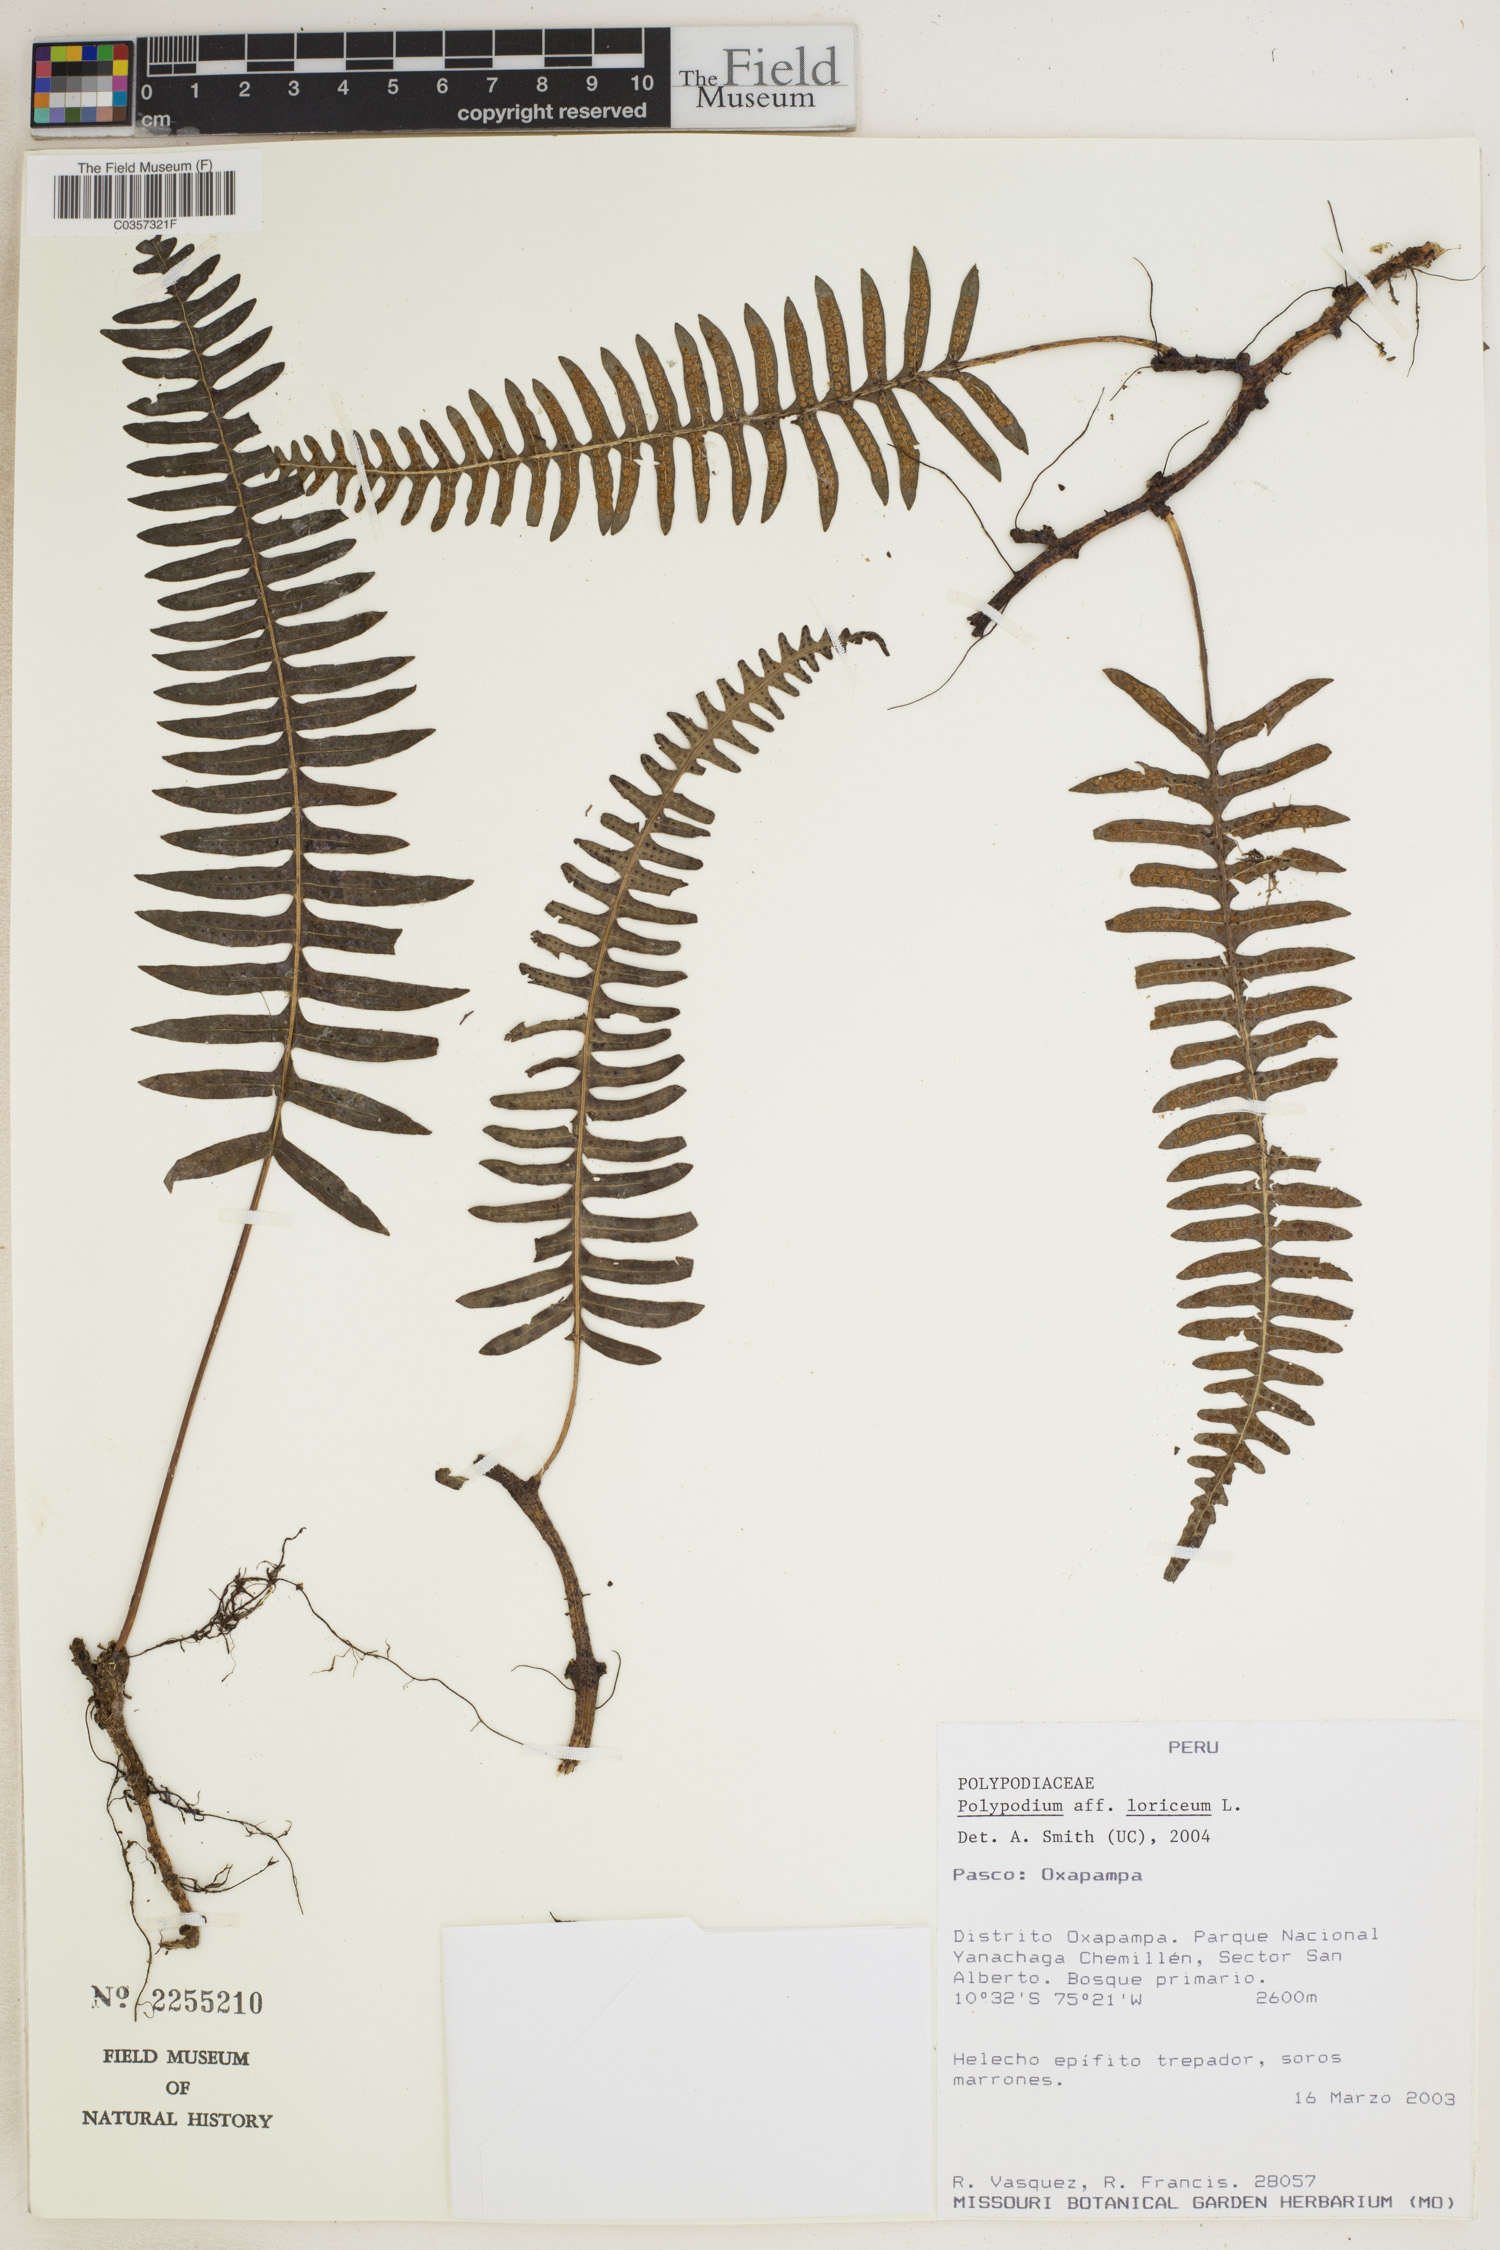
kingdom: Plantae
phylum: Tracheophyta
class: Polypodiopsida
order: Polypodiales
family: Polypodiaceae
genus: Serpocaulon
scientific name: Serpocaulon loriceum
